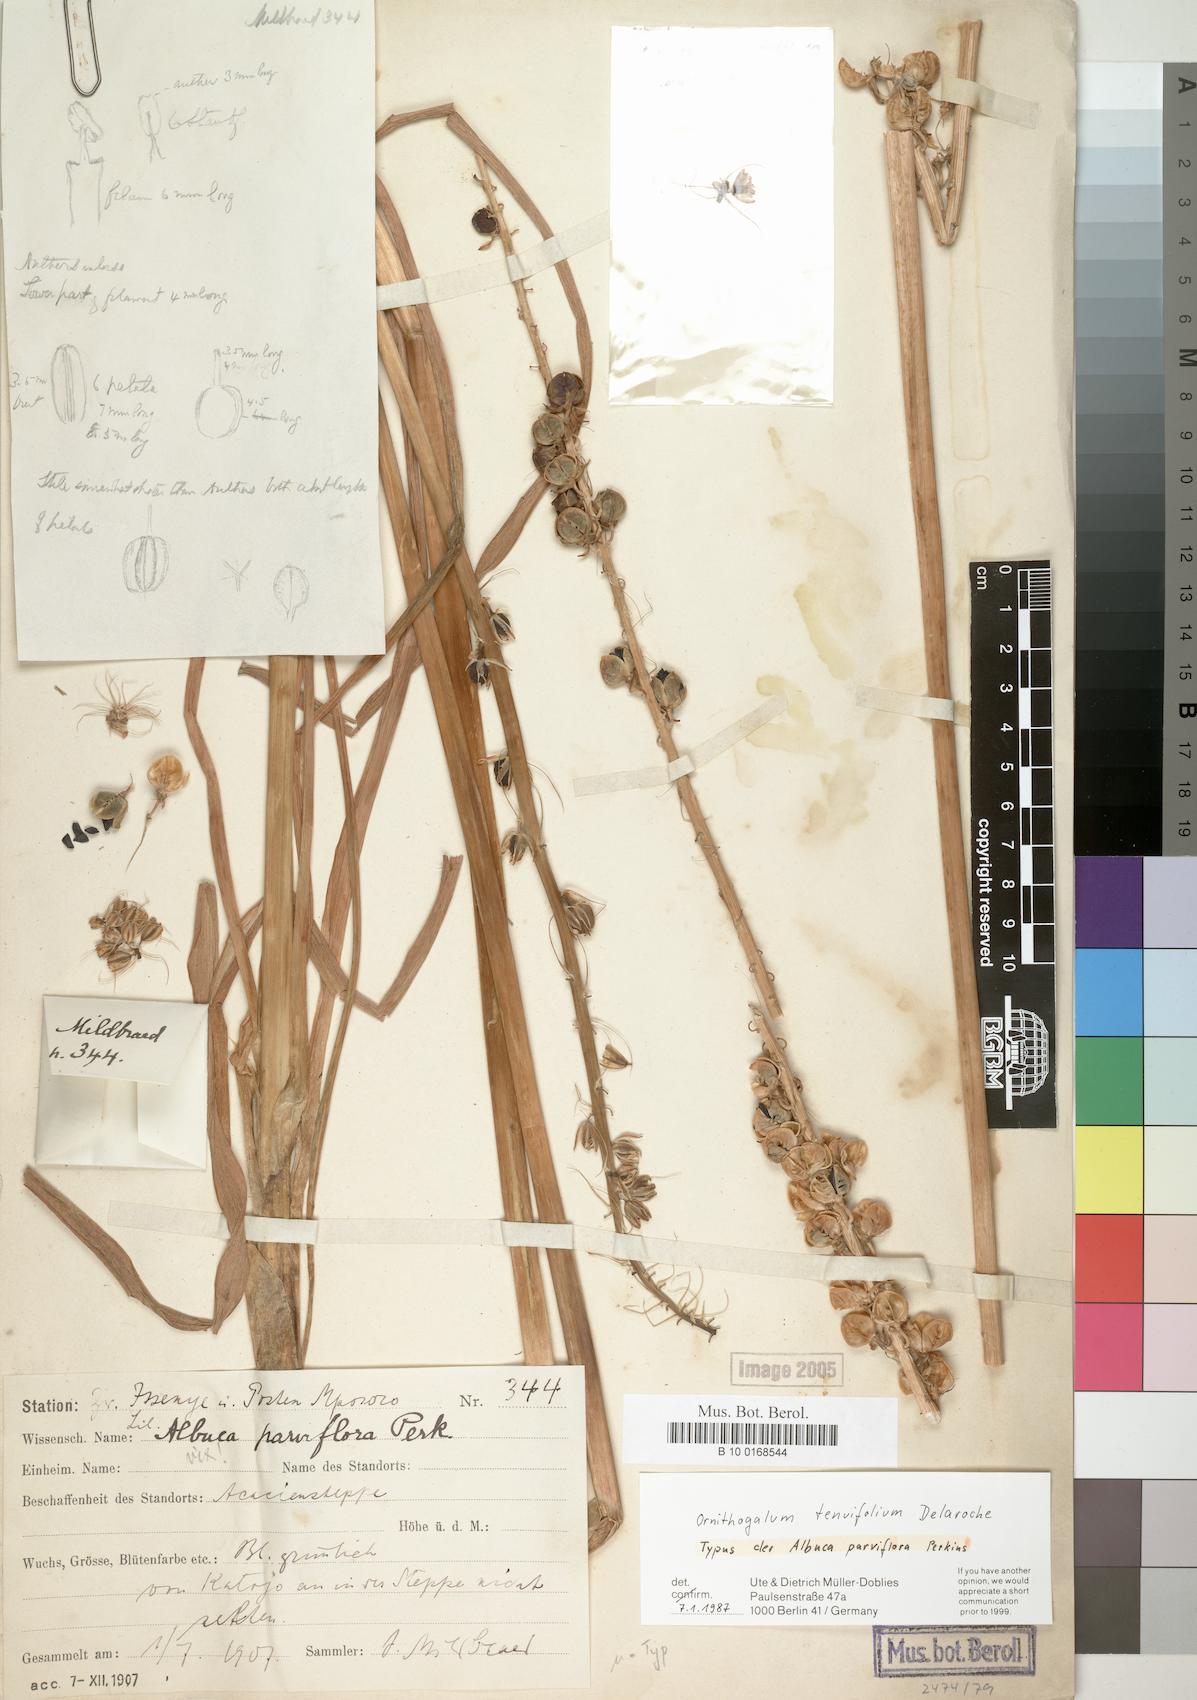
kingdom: Plantae
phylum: Tracheophyta
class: Liliopsida
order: Asparagales
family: Asparagaceae
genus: Albuca
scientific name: Albuca virens
